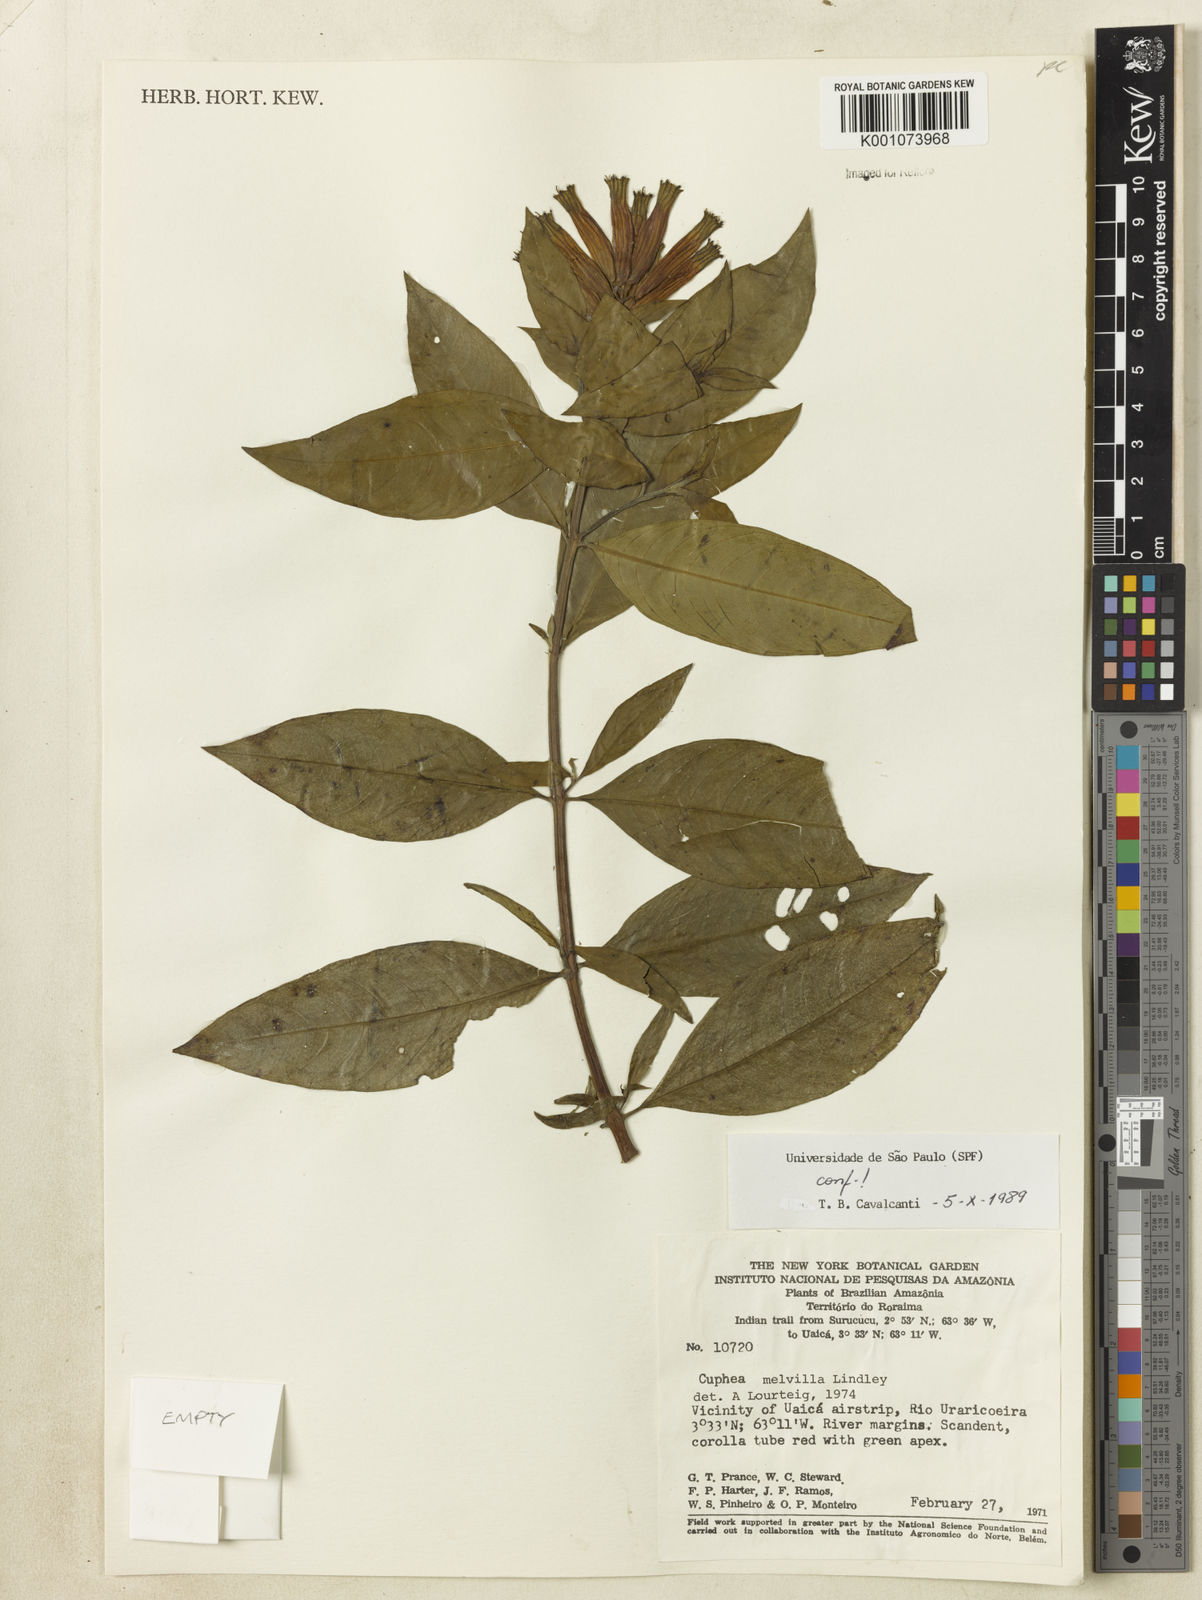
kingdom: Plantae
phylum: Tracheophyta
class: Magnoliopsida
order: Myrtales
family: Lythraceae
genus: Cuphea
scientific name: Cuphea melvilla
